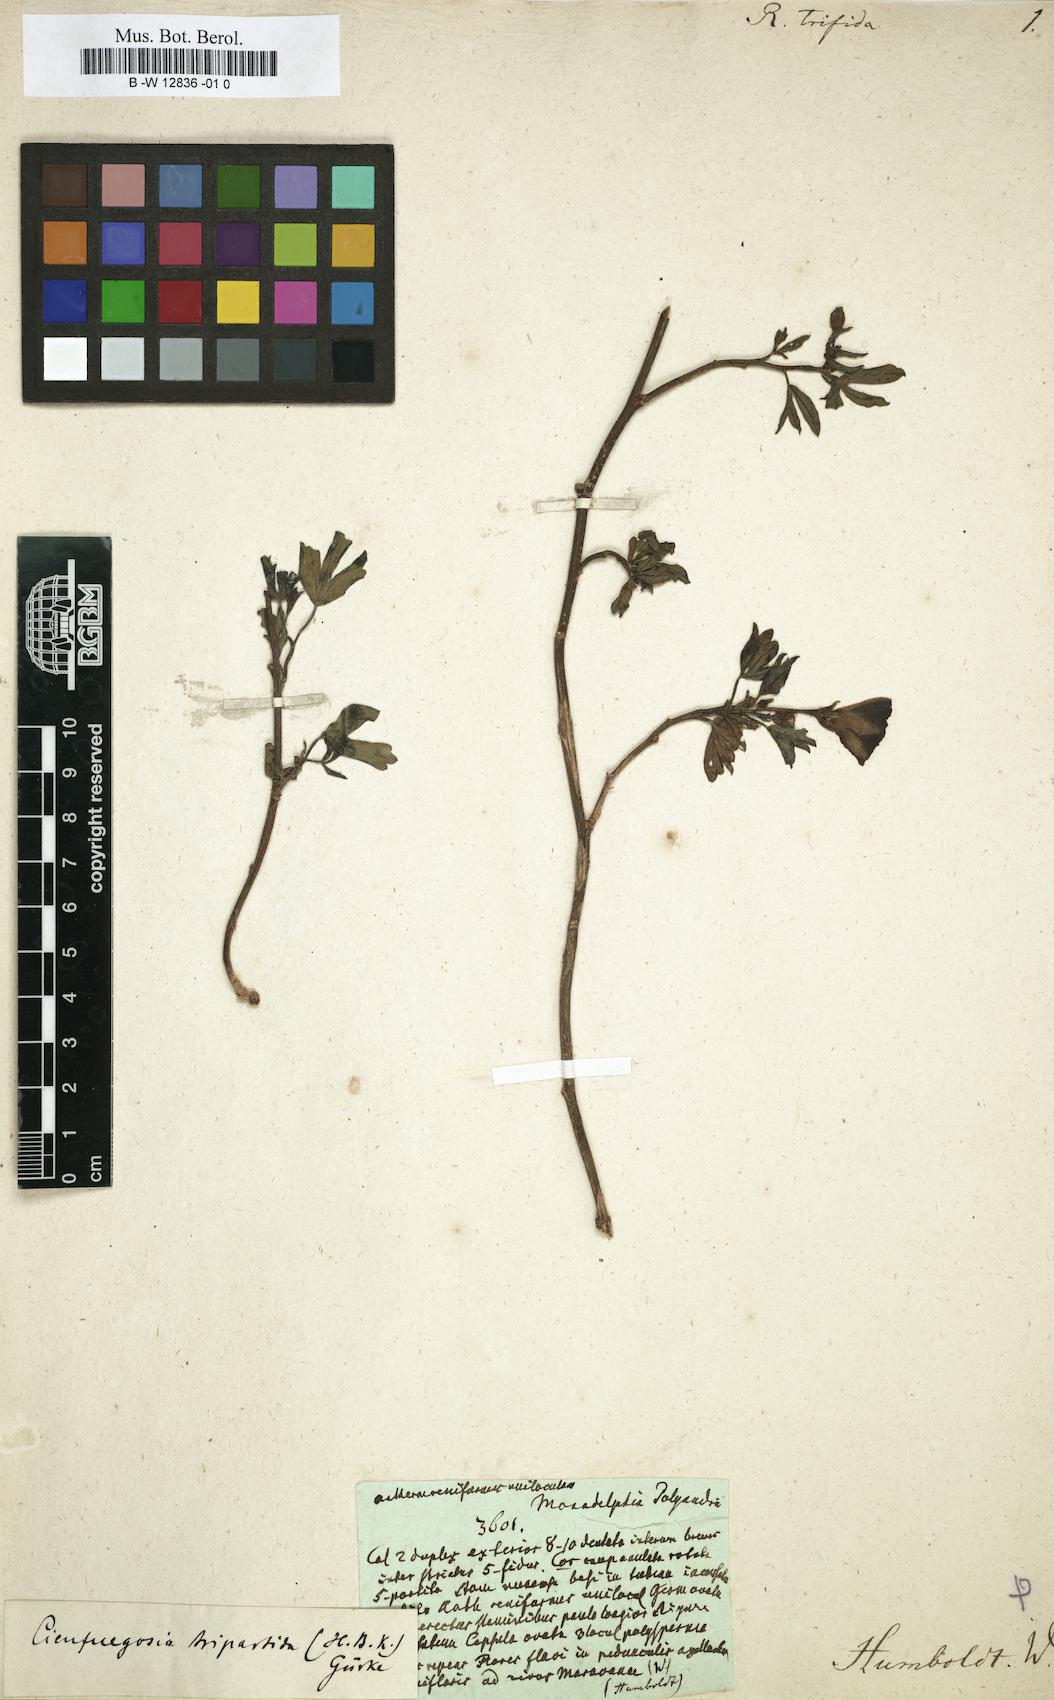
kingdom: Plantae
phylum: Tracheophyta
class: Magnoliopsida
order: Malvales
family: Malvaceae
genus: Cienfuegosia
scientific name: Cienfuegosia
